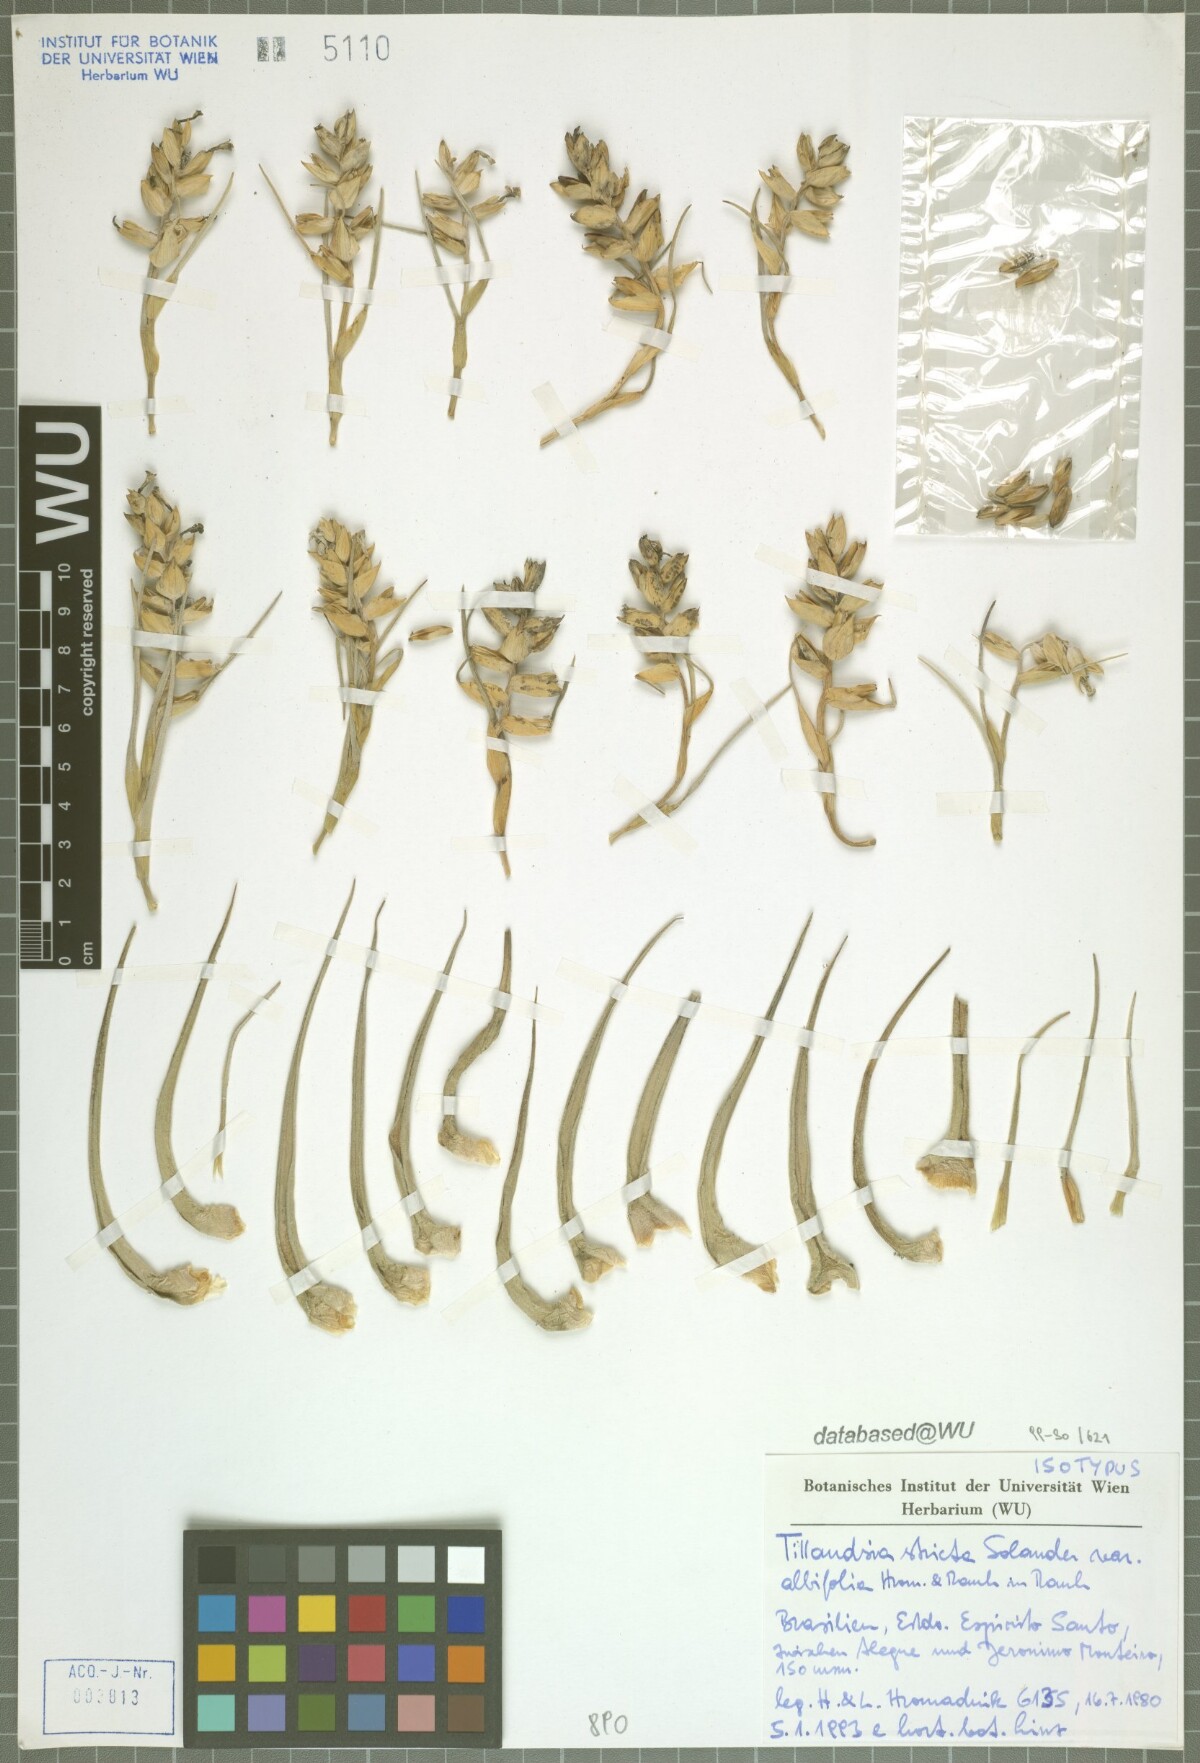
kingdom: Plantae
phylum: Tracheophyta
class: Liliopsida
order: Poales
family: Bromeliaceae
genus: Tillandsia
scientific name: Tillandsia stricta
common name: Airplant
